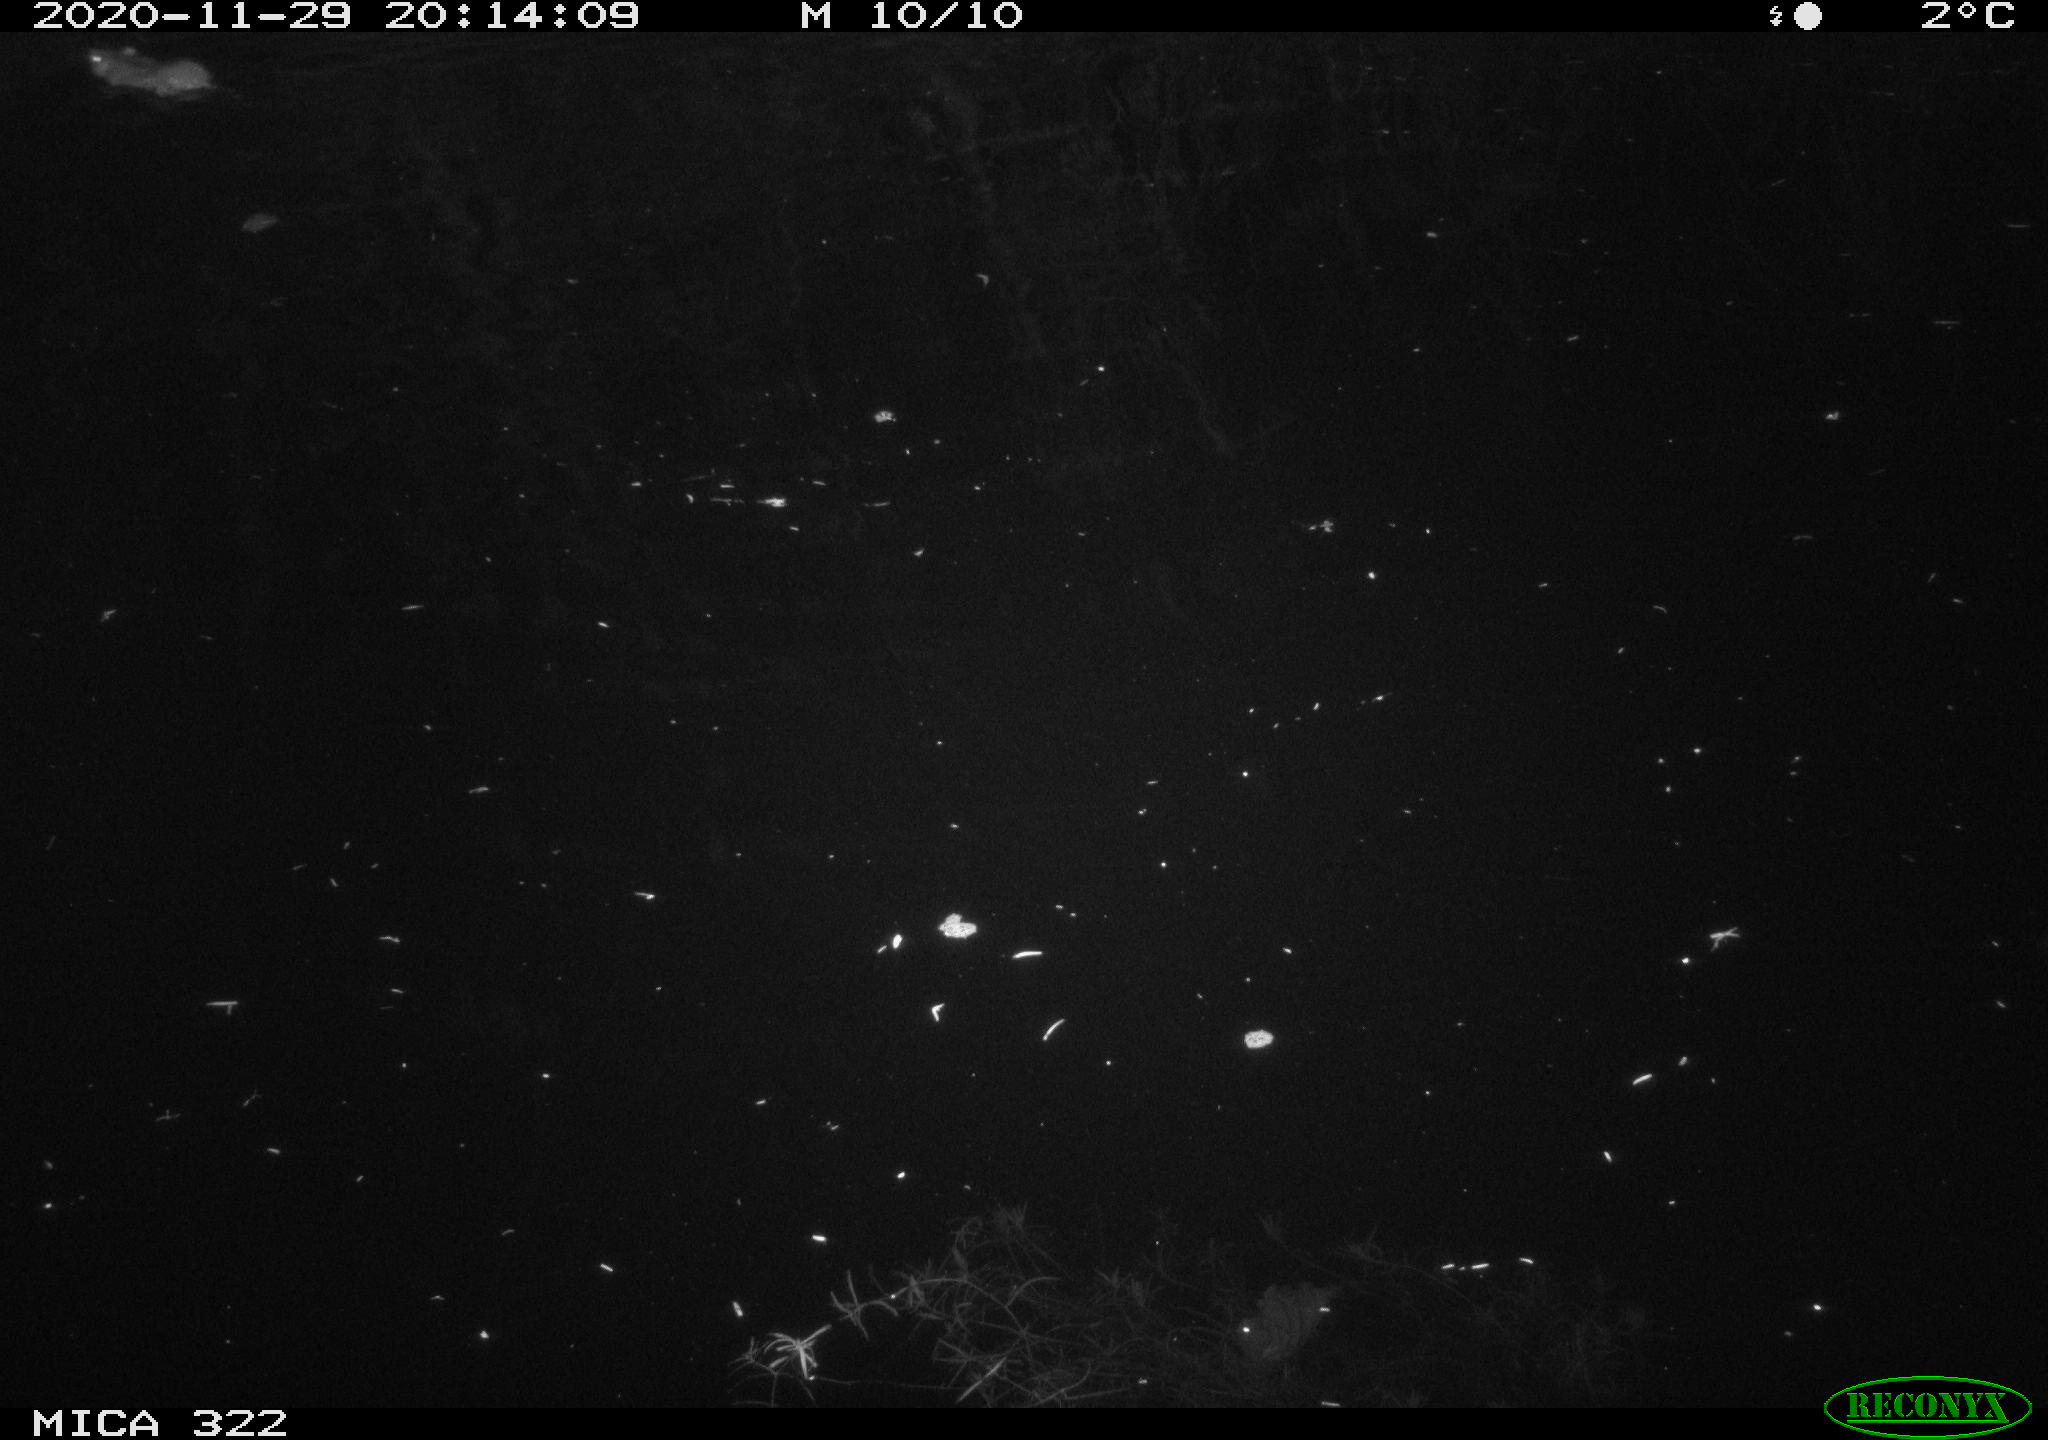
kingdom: Animalia
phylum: Chordata
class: Mammalia
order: Rodentia
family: Muridae
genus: Rattus
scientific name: Rattus norvegicus
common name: Brown rat
